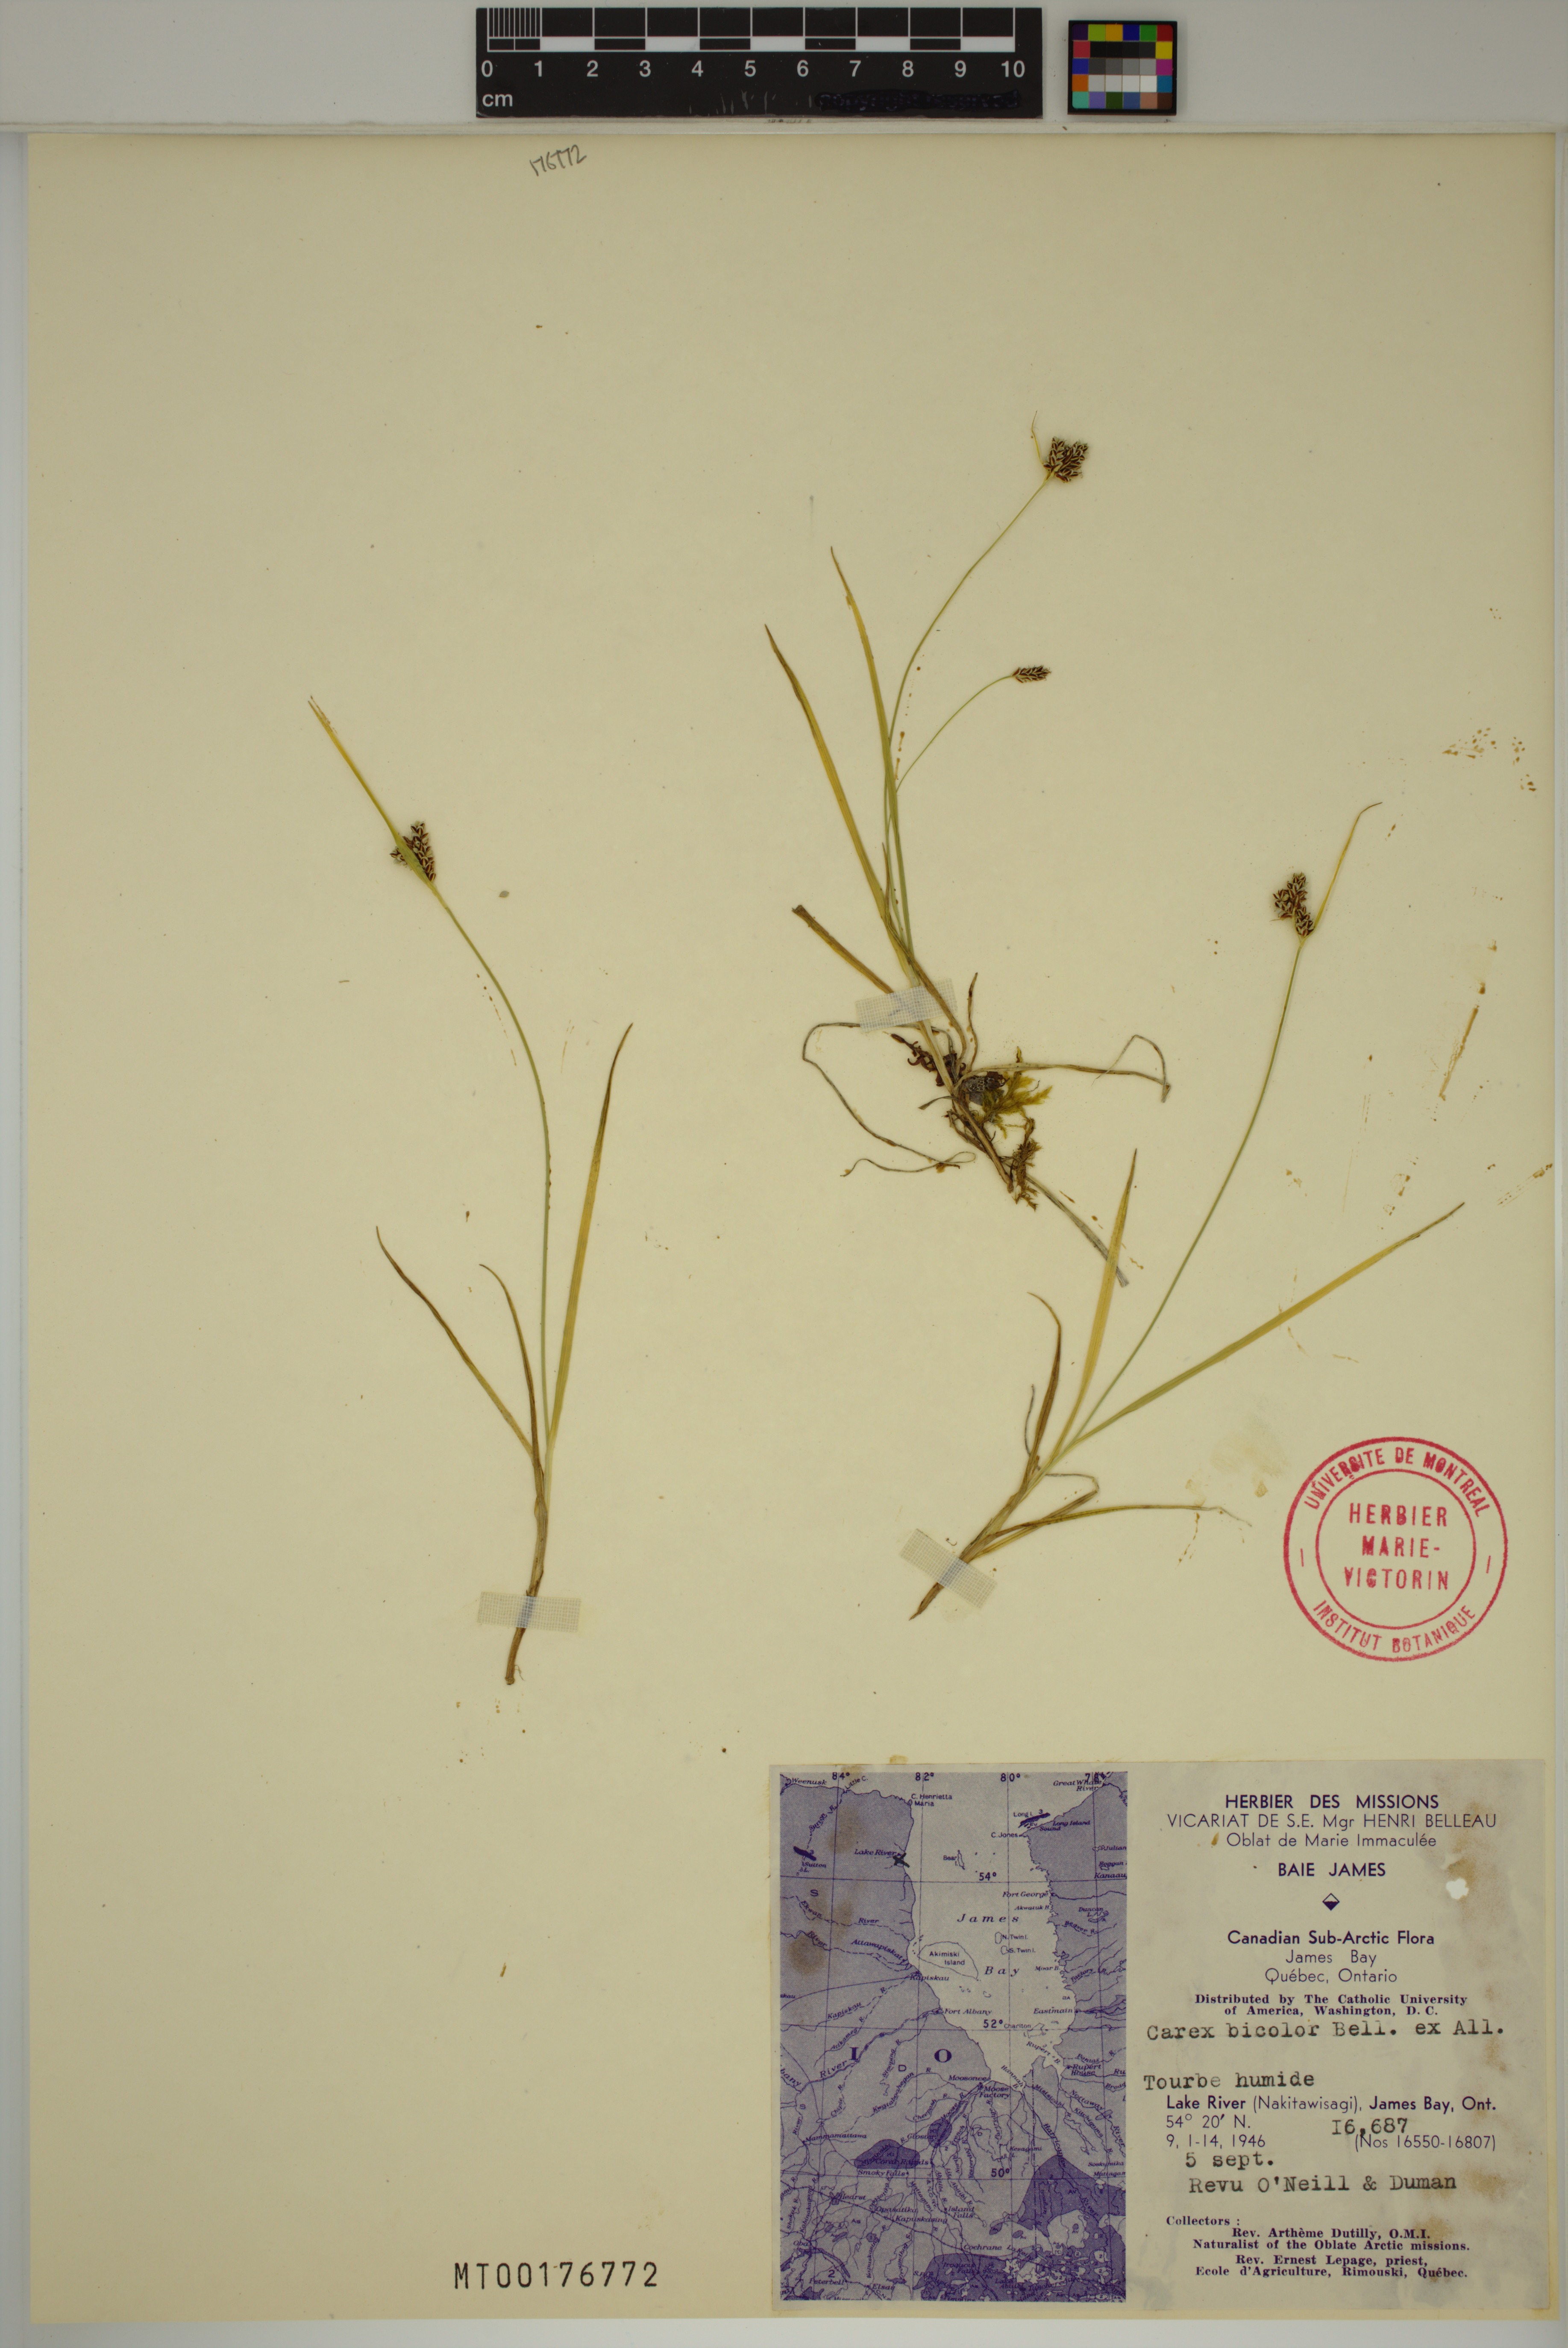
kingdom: Plantae
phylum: Tracheophyta
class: Liliopsida
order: Poales
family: Cyperaceae
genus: Carex
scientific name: Carex bicolor
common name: Bicoloured sedge
